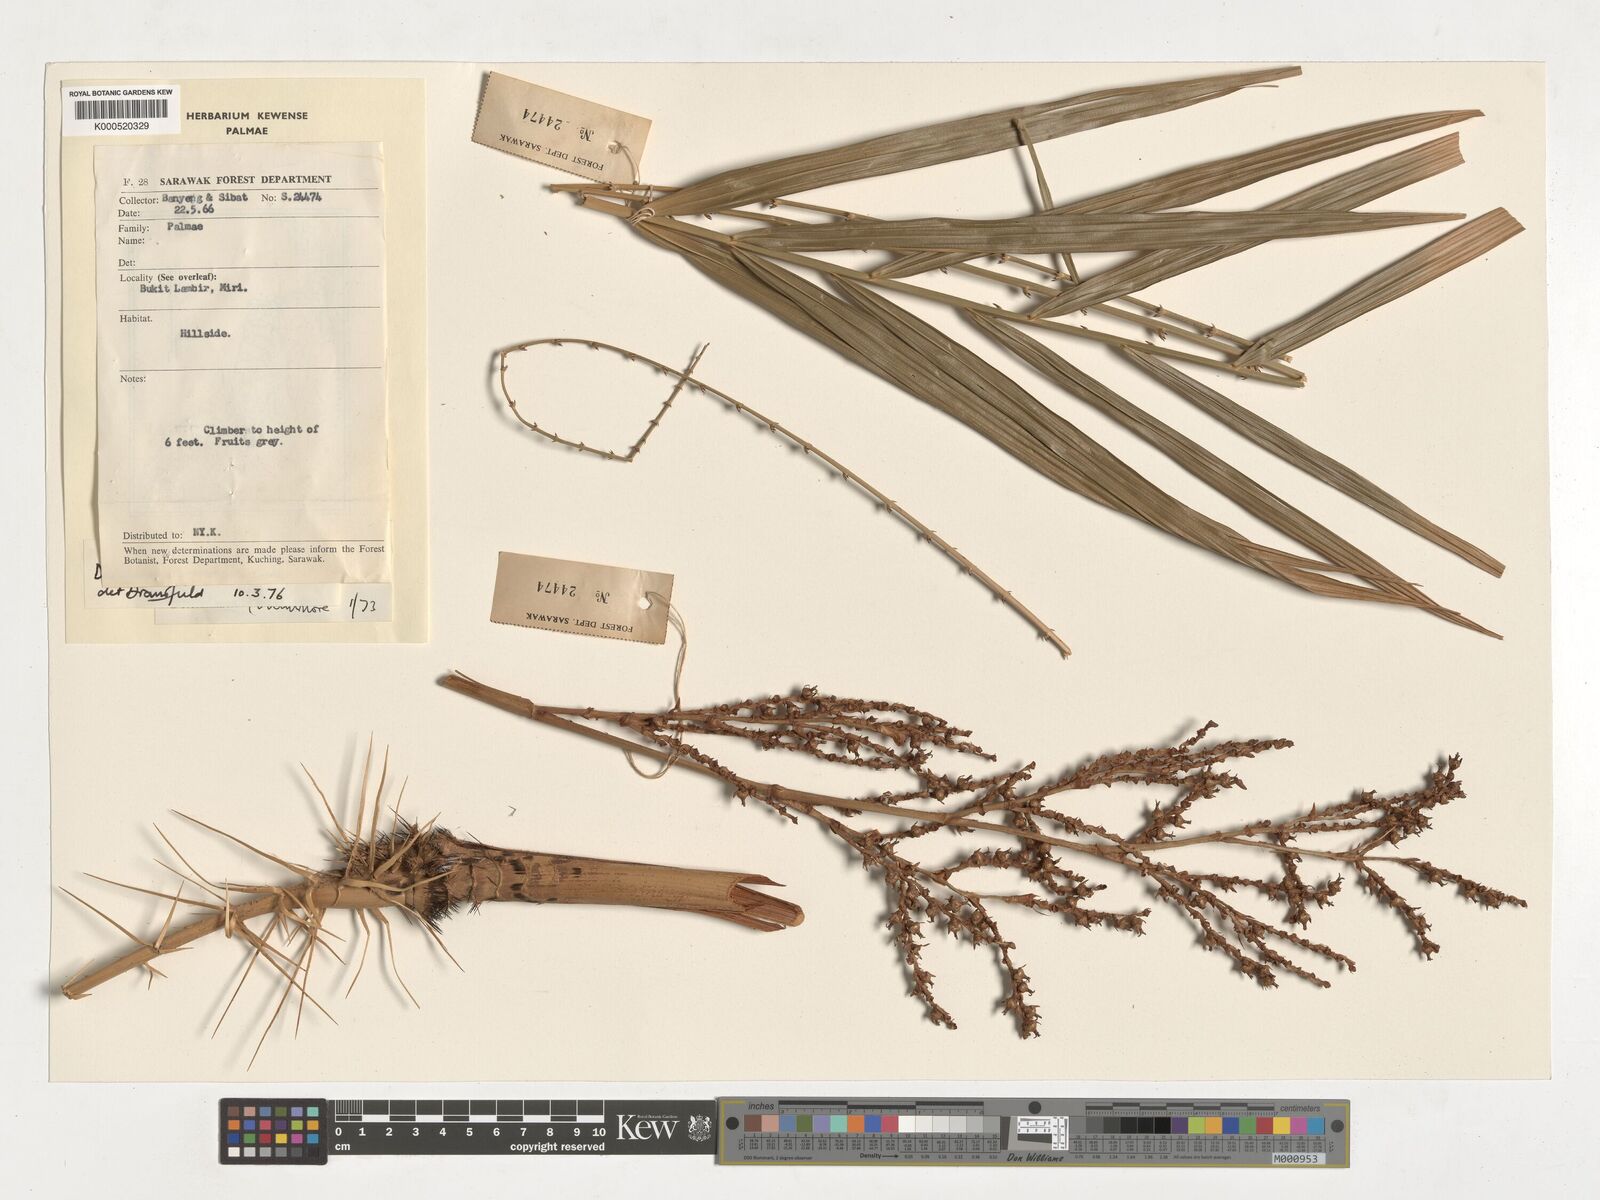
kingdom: Plantae
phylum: Tracheophyta
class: Liliopsida
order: Arecales
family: Arecaceae
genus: Calamus
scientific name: Calamus geniculatus
